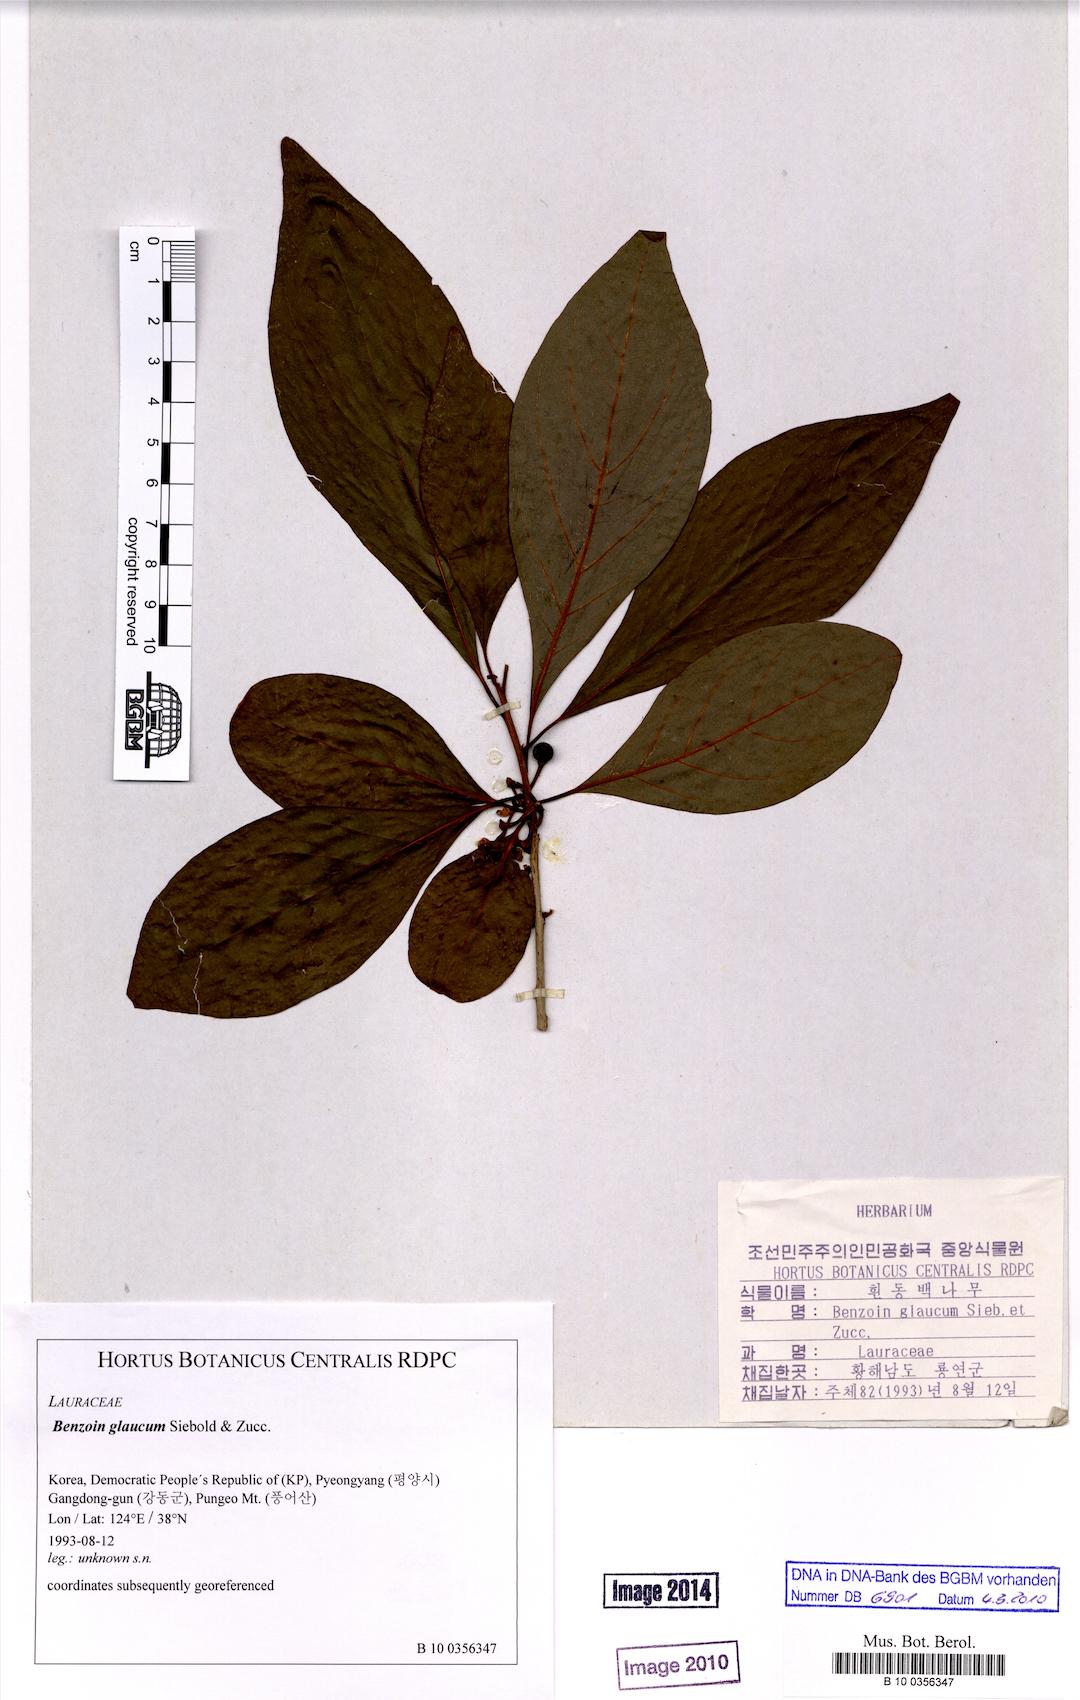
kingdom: Plantae
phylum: Tracheophyta
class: Magnoliopsida
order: Laurales
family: Lauraceae
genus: Lindera
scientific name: Lindera glauca
